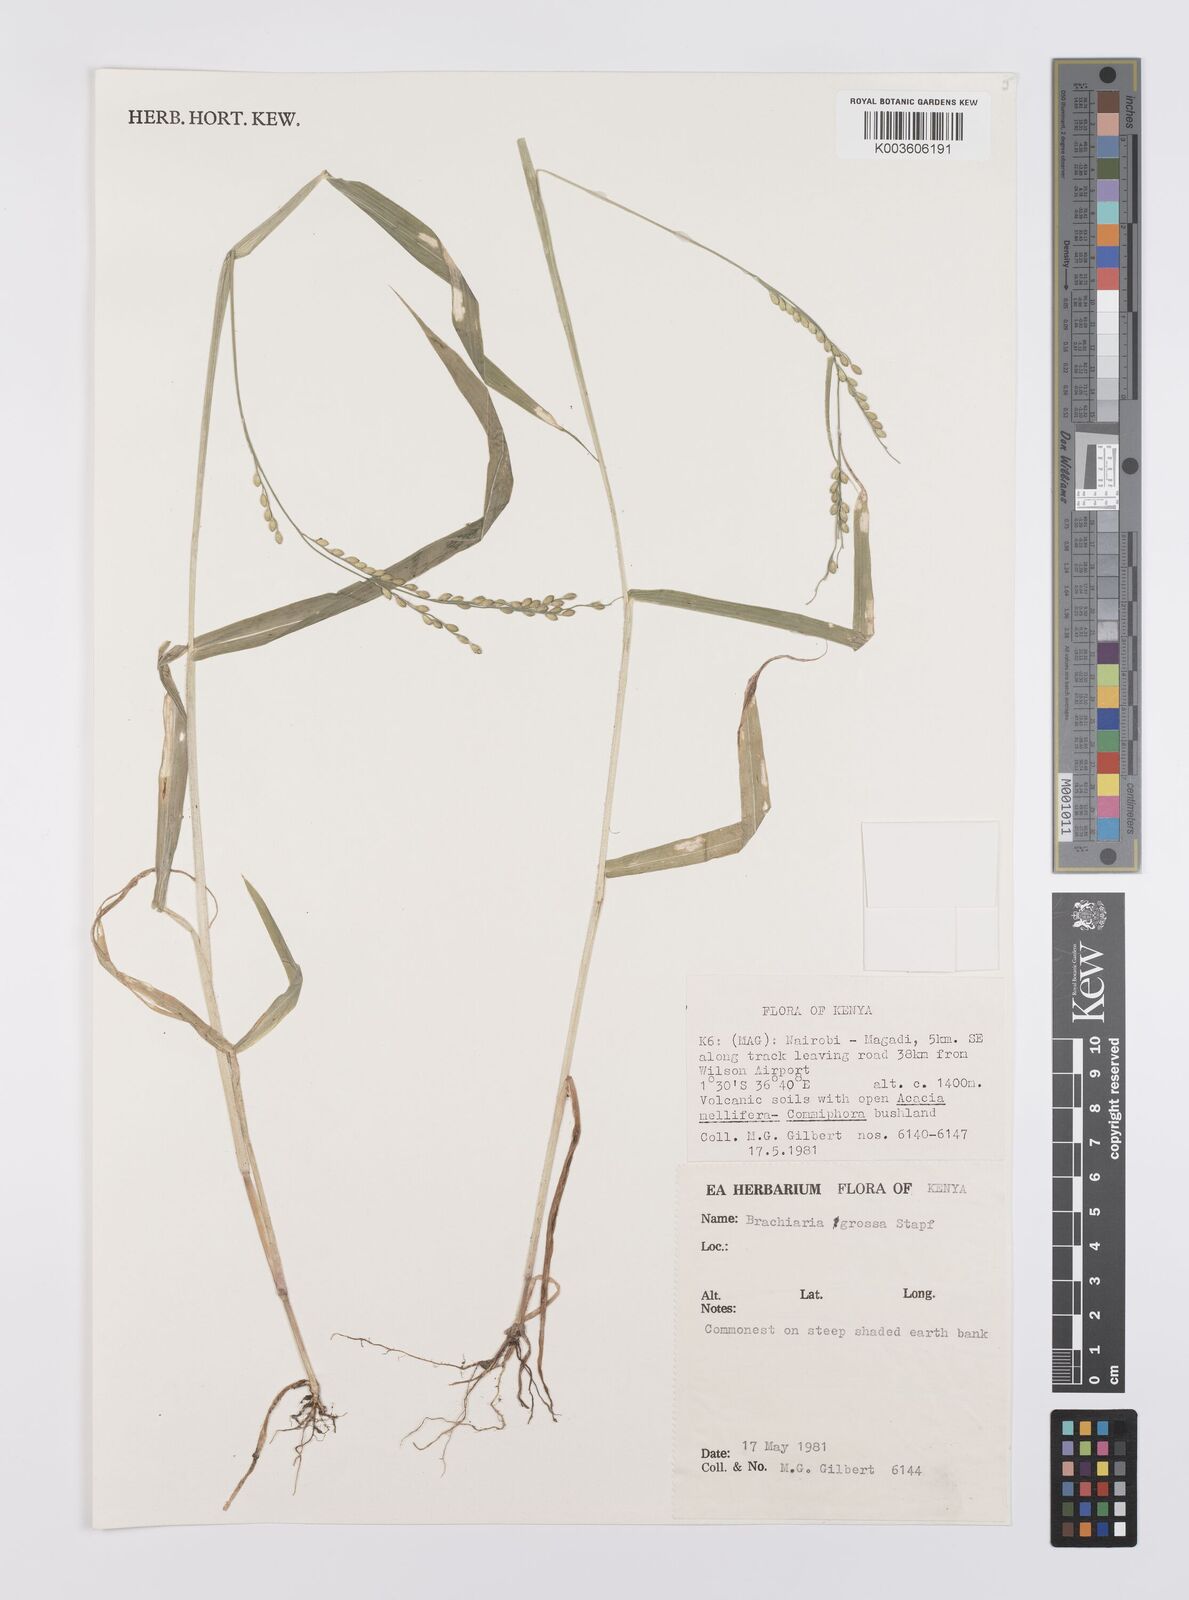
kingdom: Plantae
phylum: Tracheophyta
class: Liliopsida
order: Poales
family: Poaceae
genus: Urochloa
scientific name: Urochloa Brachiaria grossa
